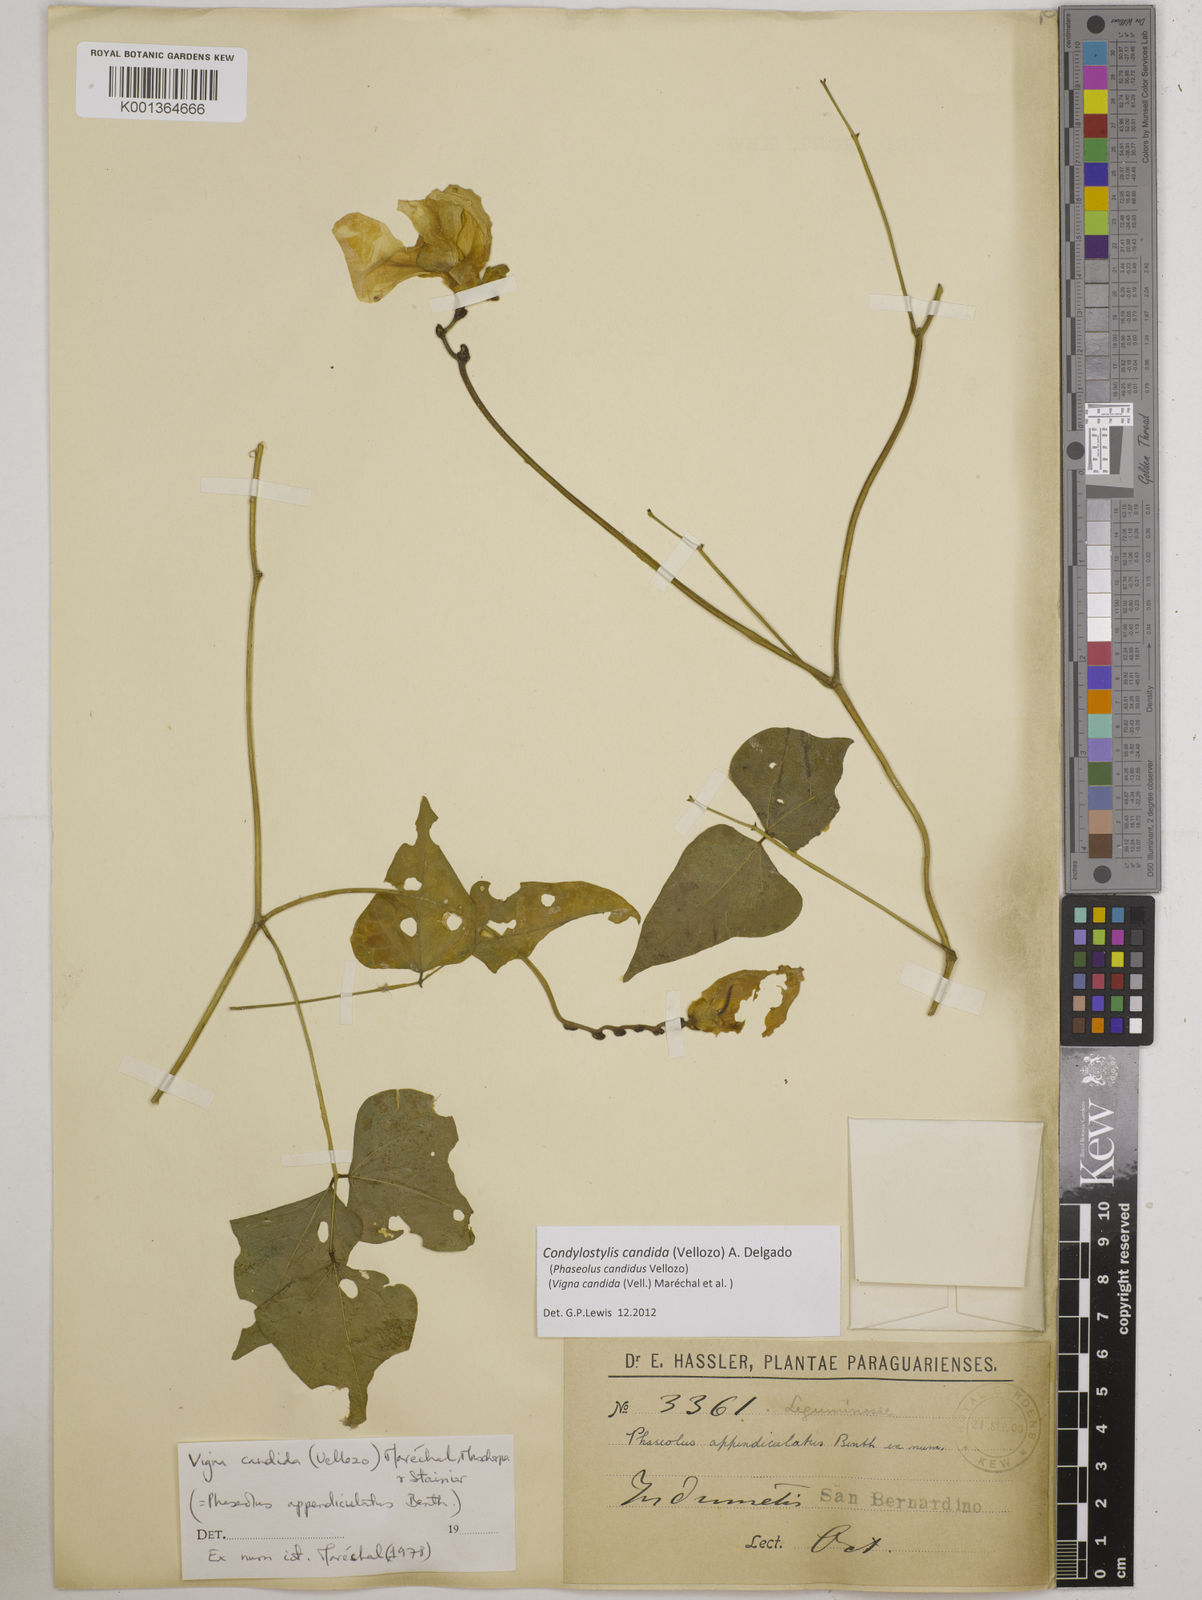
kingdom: Plantae
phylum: Tracheophyta
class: Magnoliopsida
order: Fabales
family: Fabaceae
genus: Condylostylis
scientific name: Condylostylis candida
